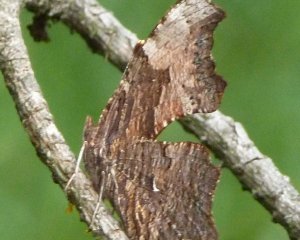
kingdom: Animalia
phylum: Arthropoda
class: Insecta
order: Lepidoptera
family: Nymphalidae
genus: Polygonia
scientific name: Polygonia progne
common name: Gray Comma
